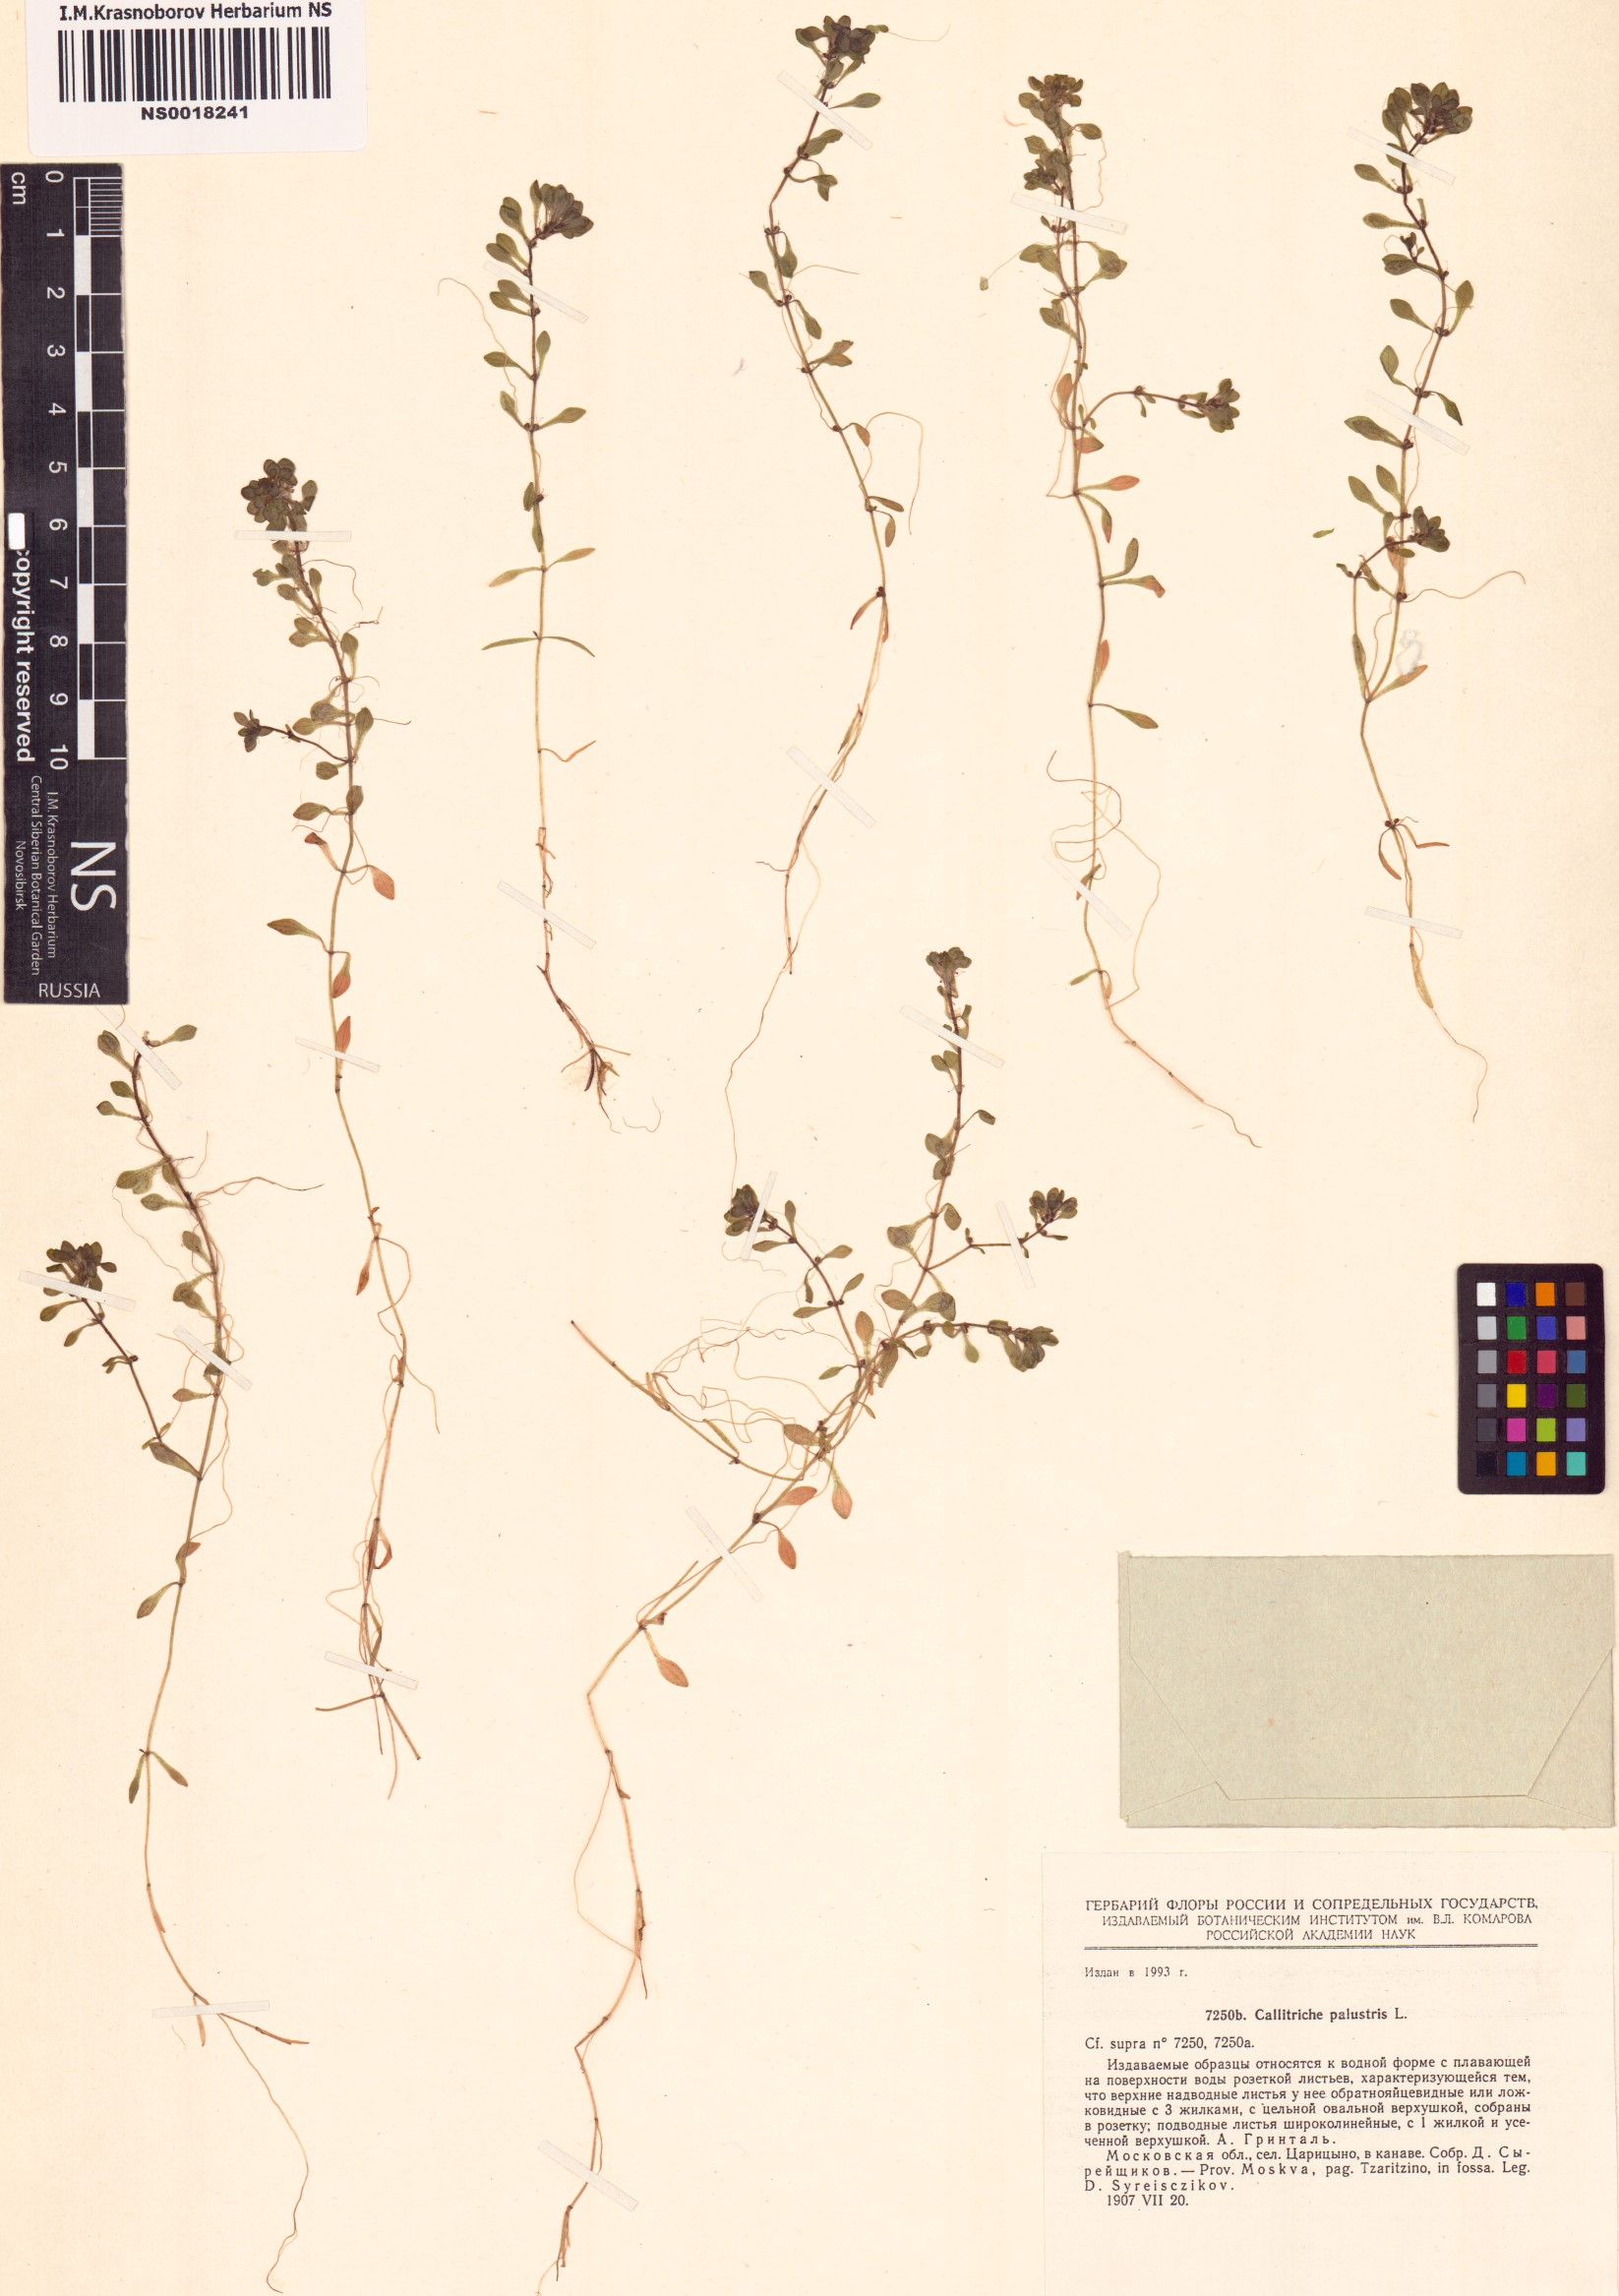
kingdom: Plantae
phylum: Tracheophyta
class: Magnoliopsida
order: Lamiales
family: Plantaginaceae
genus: Callitriche
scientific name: Callitriche palustris
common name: Spring water-starwort
